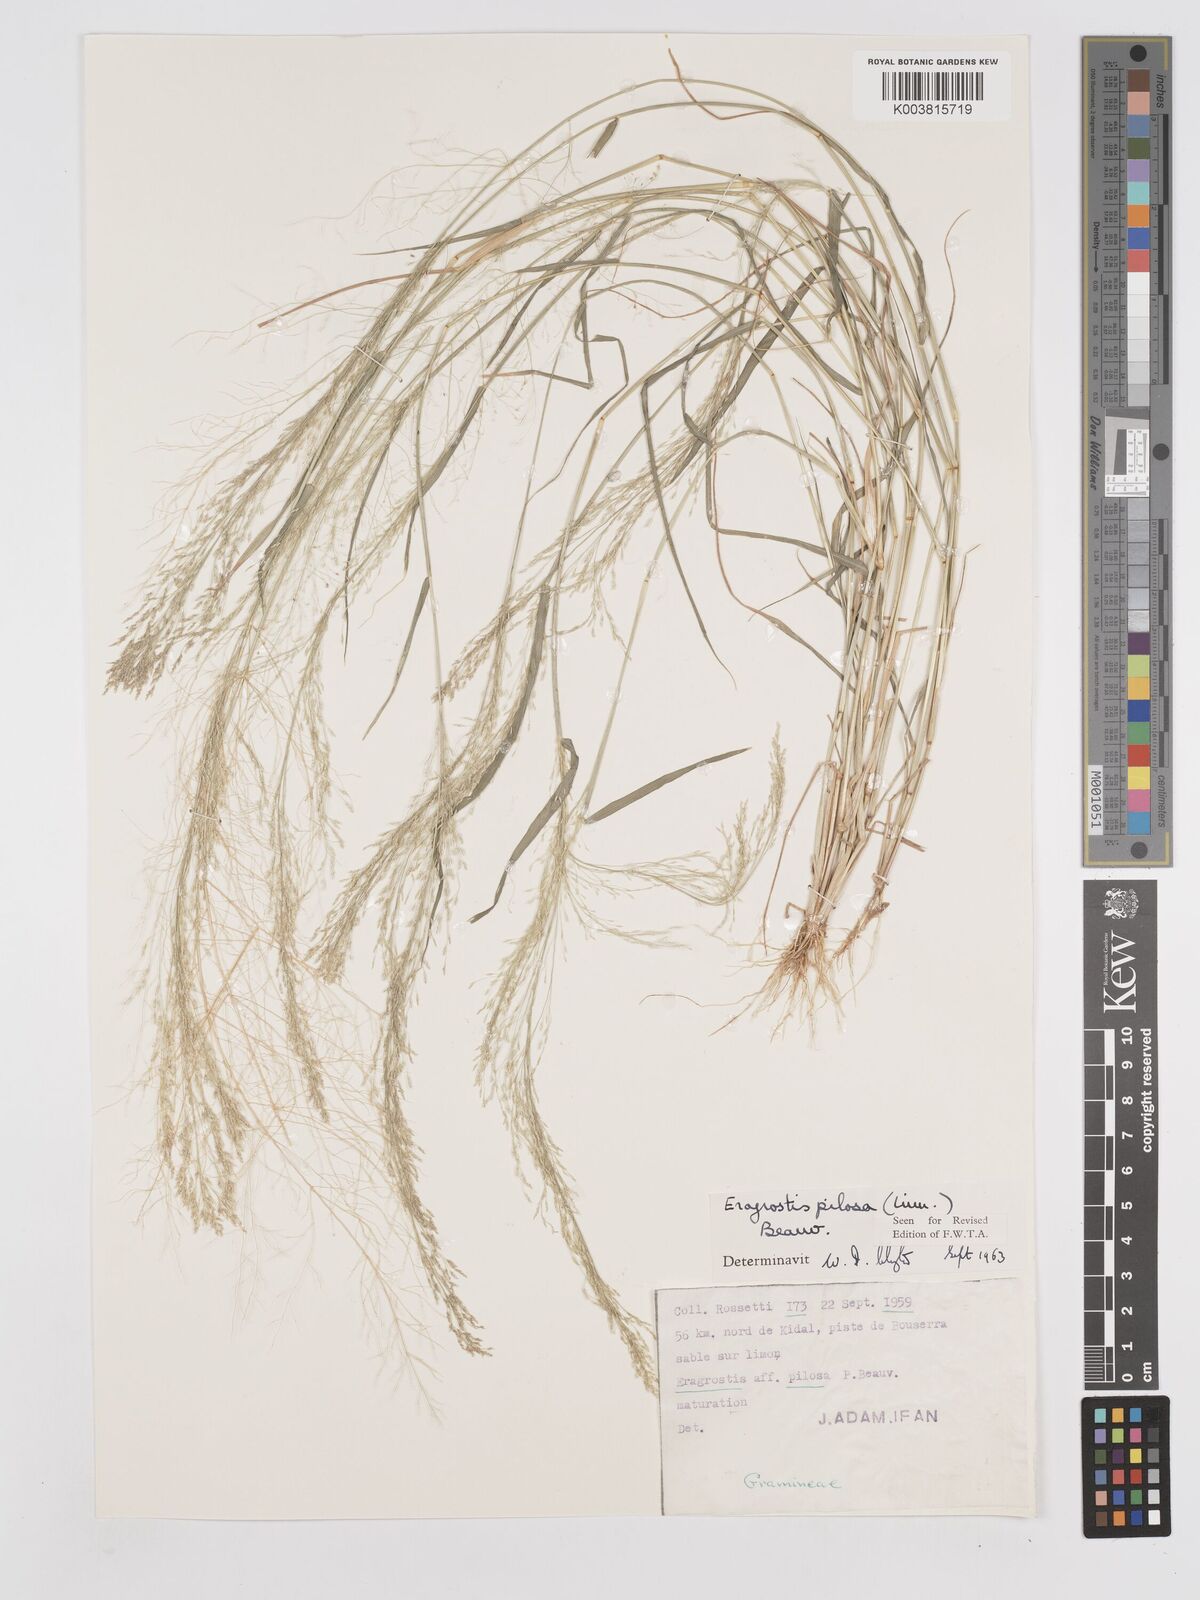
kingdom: Plantae
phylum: Tracheophyta
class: Liliopsida
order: Poales
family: Poaceae
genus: Eragrostis
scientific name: Eragrostis pilosa
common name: Indian lovegrass
